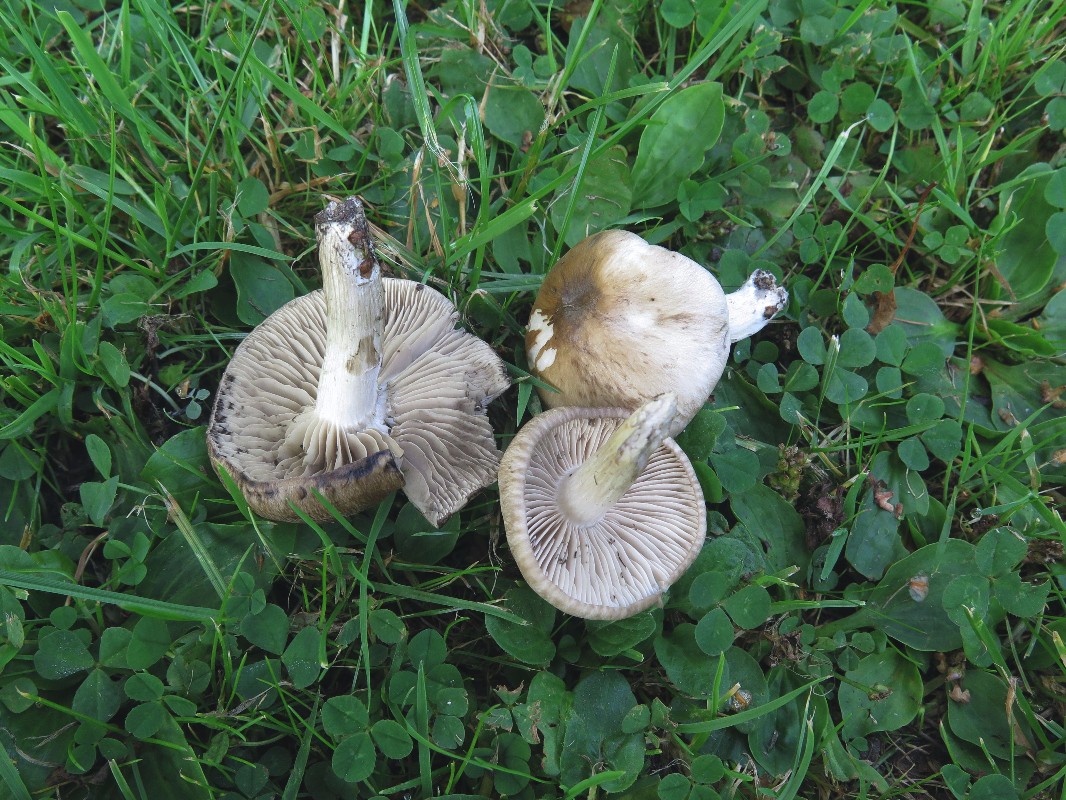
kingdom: Fungi
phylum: Basidiomycota
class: Agaricomycetes
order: Agaricales
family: Lyophyllaceae
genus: Lyophyllum
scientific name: Lyophyllum paelochroum
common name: blånende gråblad
